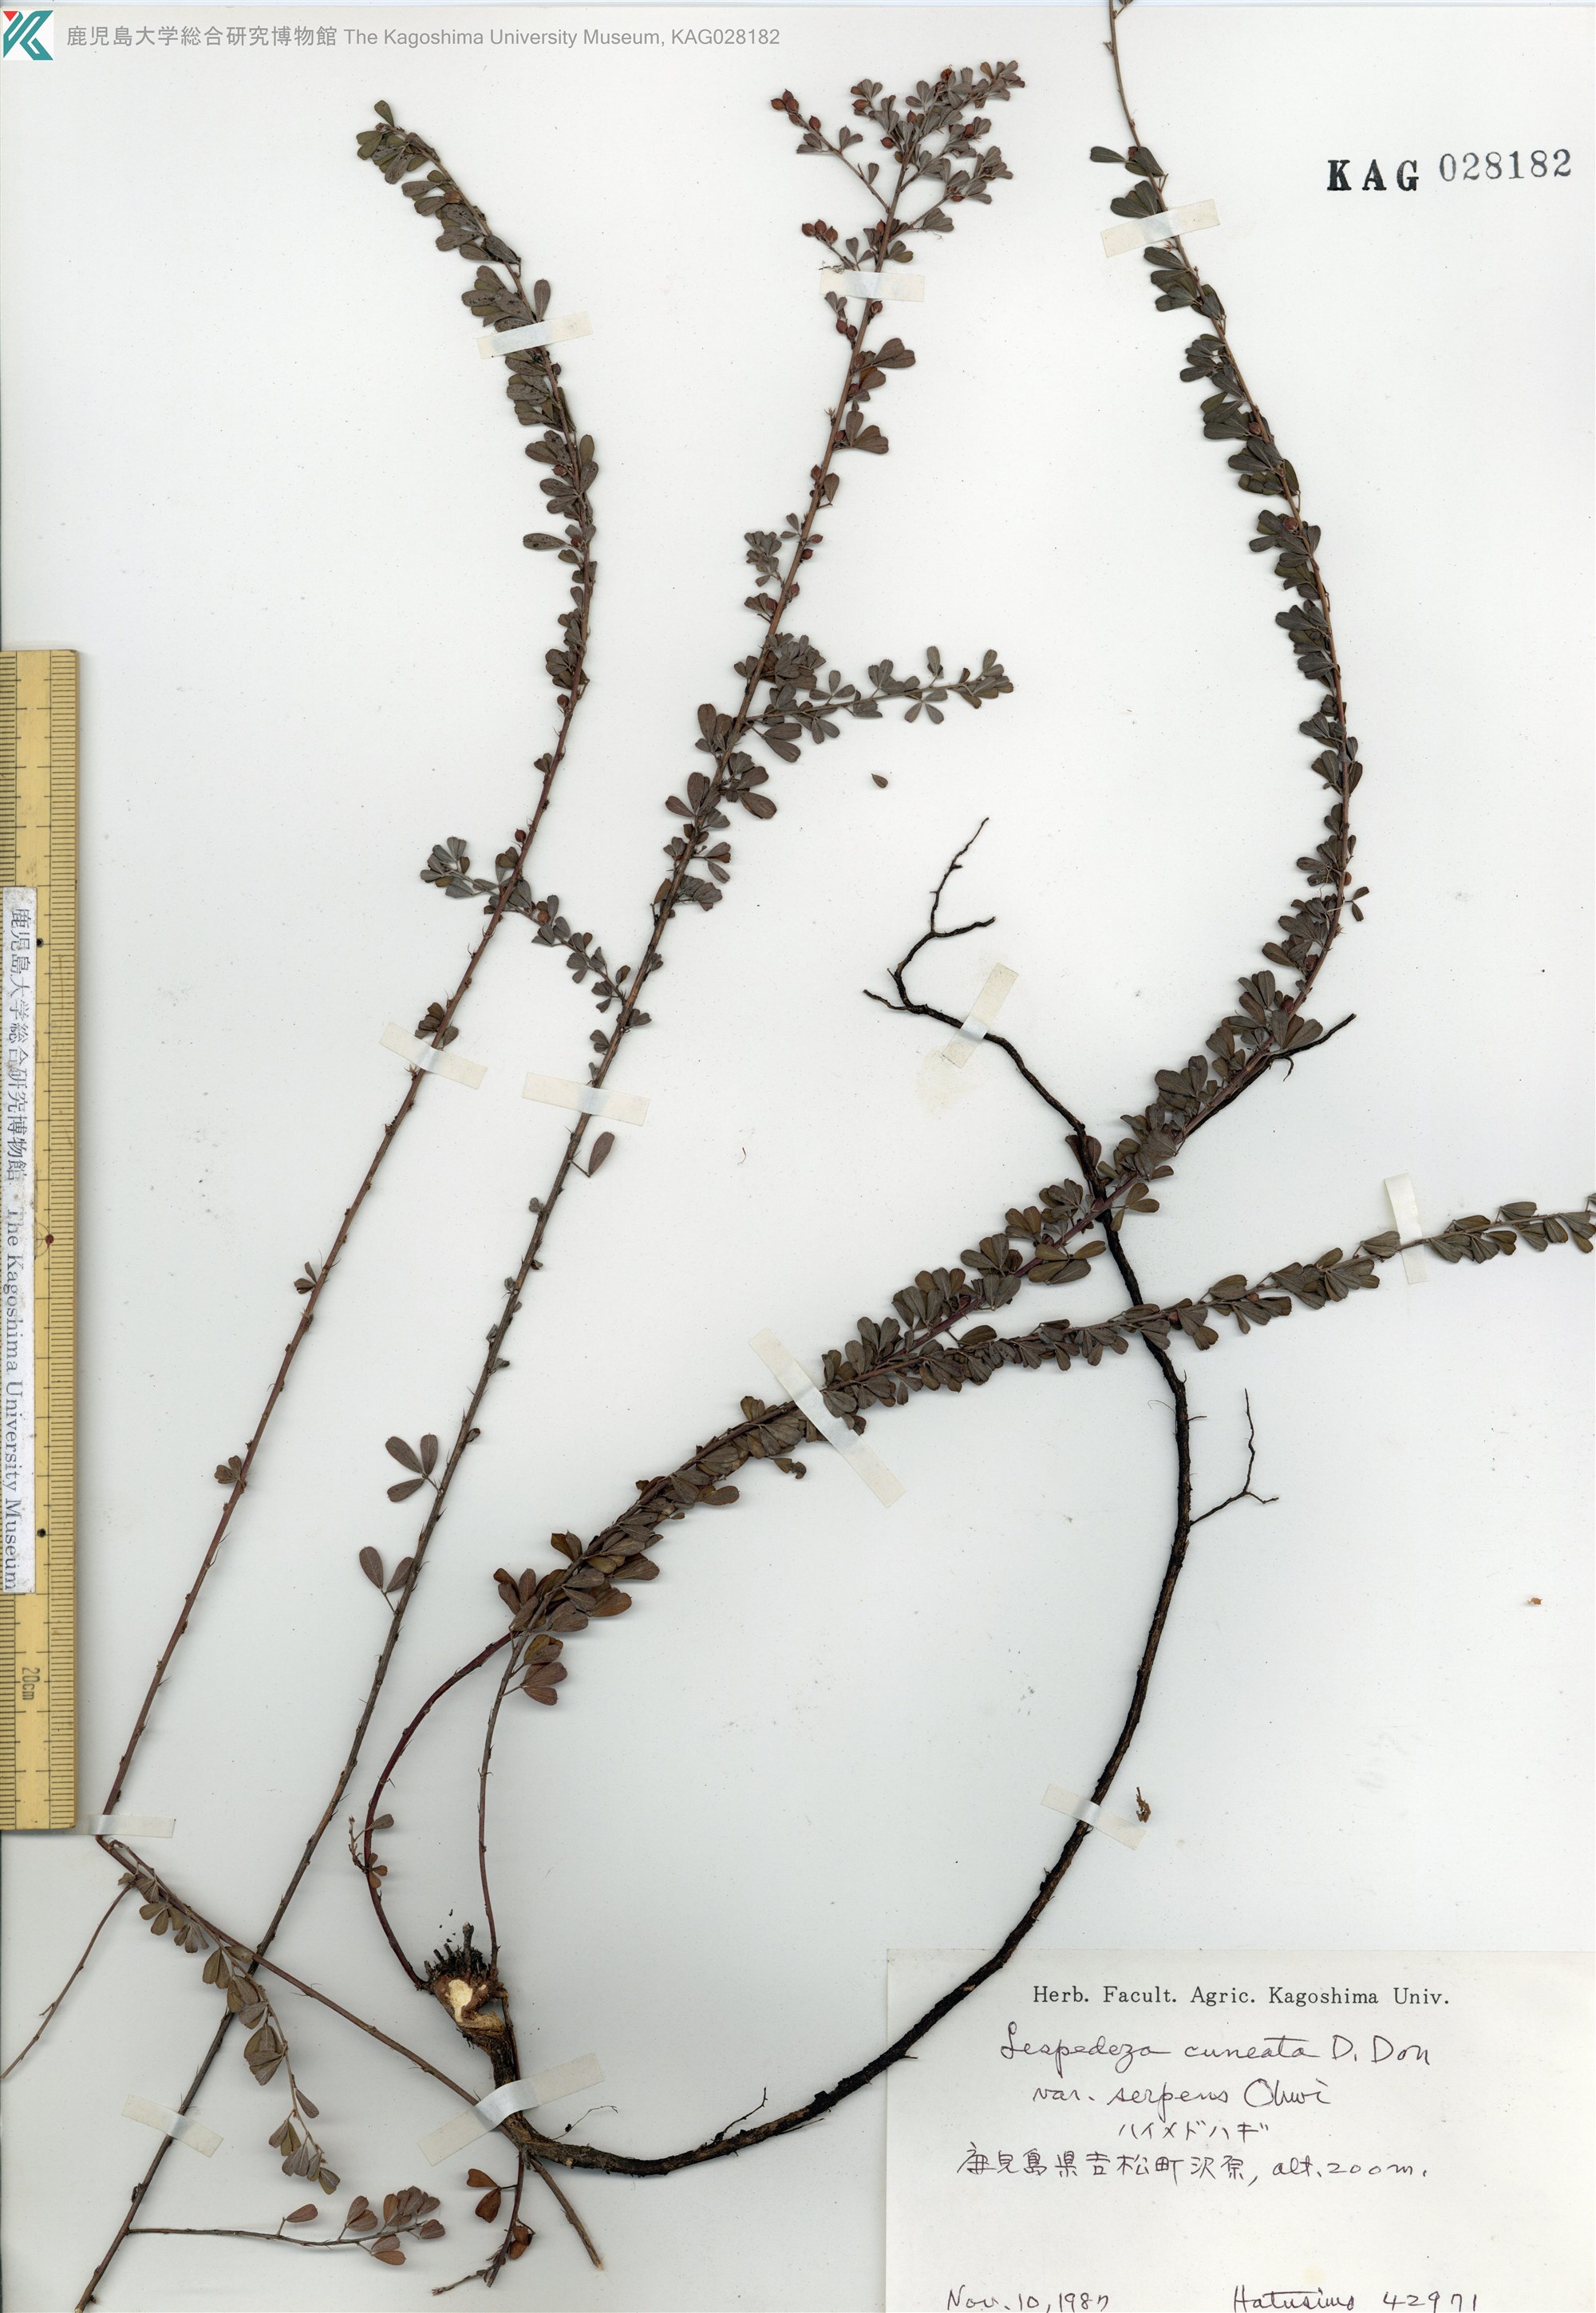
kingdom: Plantae
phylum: Tracheophyta
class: Magnoliopsida
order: Fabales
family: Fabaceae
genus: Lespedeza
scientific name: Lespedeza cuneata
